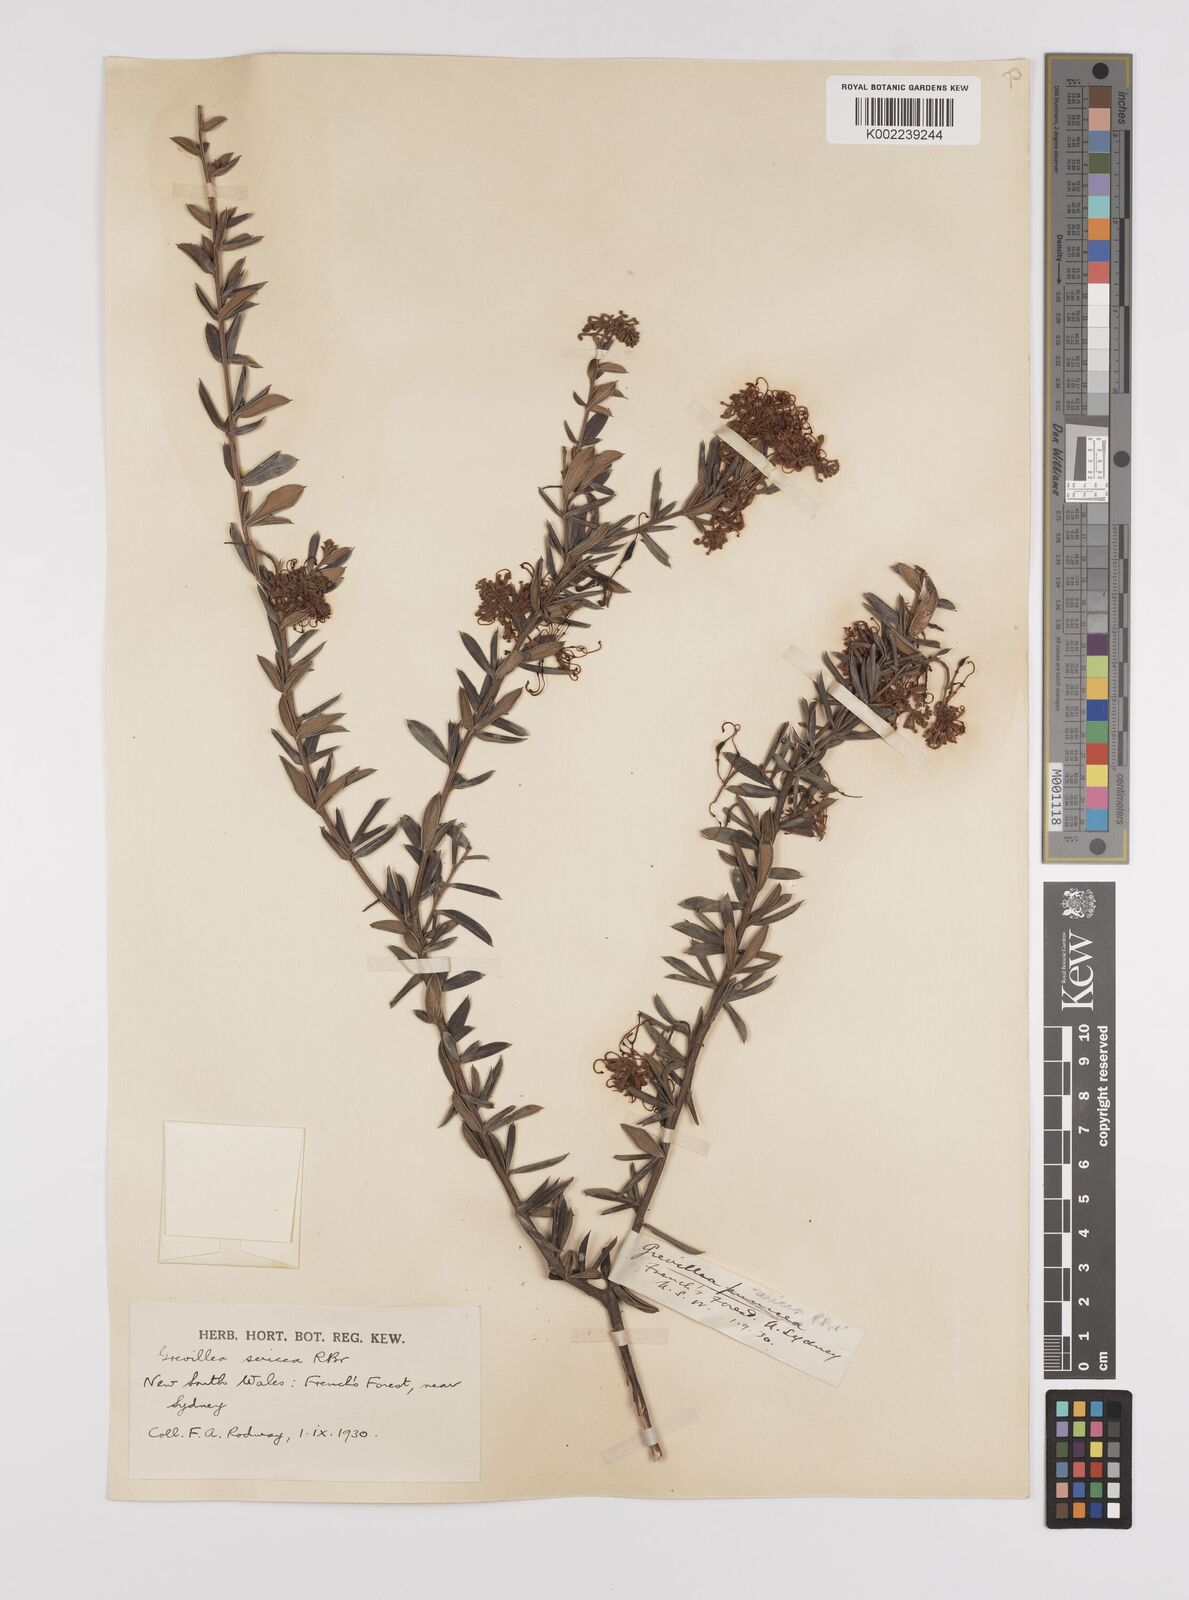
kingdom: Plantae
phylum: Tracheophyta
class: Magnoliopsida
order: Proteales
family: Proteaceae
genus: Grevillea
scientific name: Grevillea sericea
